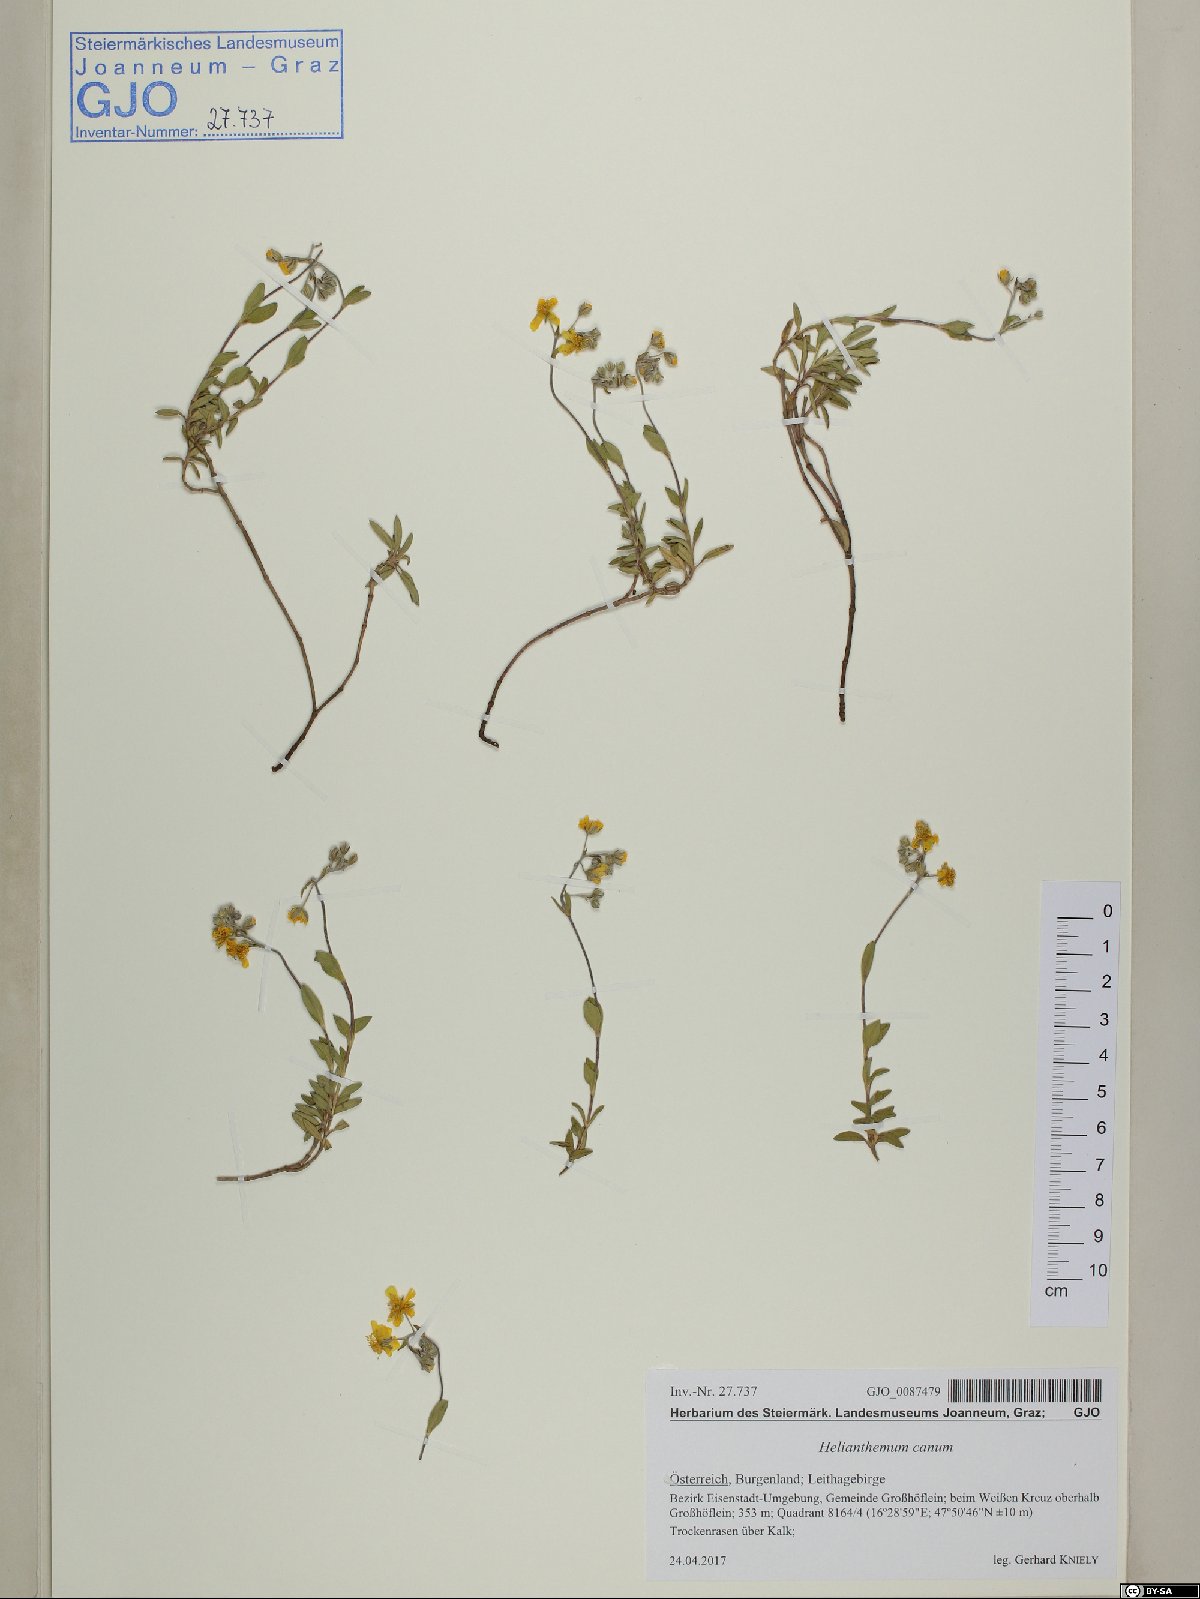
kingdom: Plantae
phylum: Tracheophyta
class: Magnoliopsida
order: Malvales
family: Cistaceae
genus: Helianthemum
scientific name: Helianthemum canum
